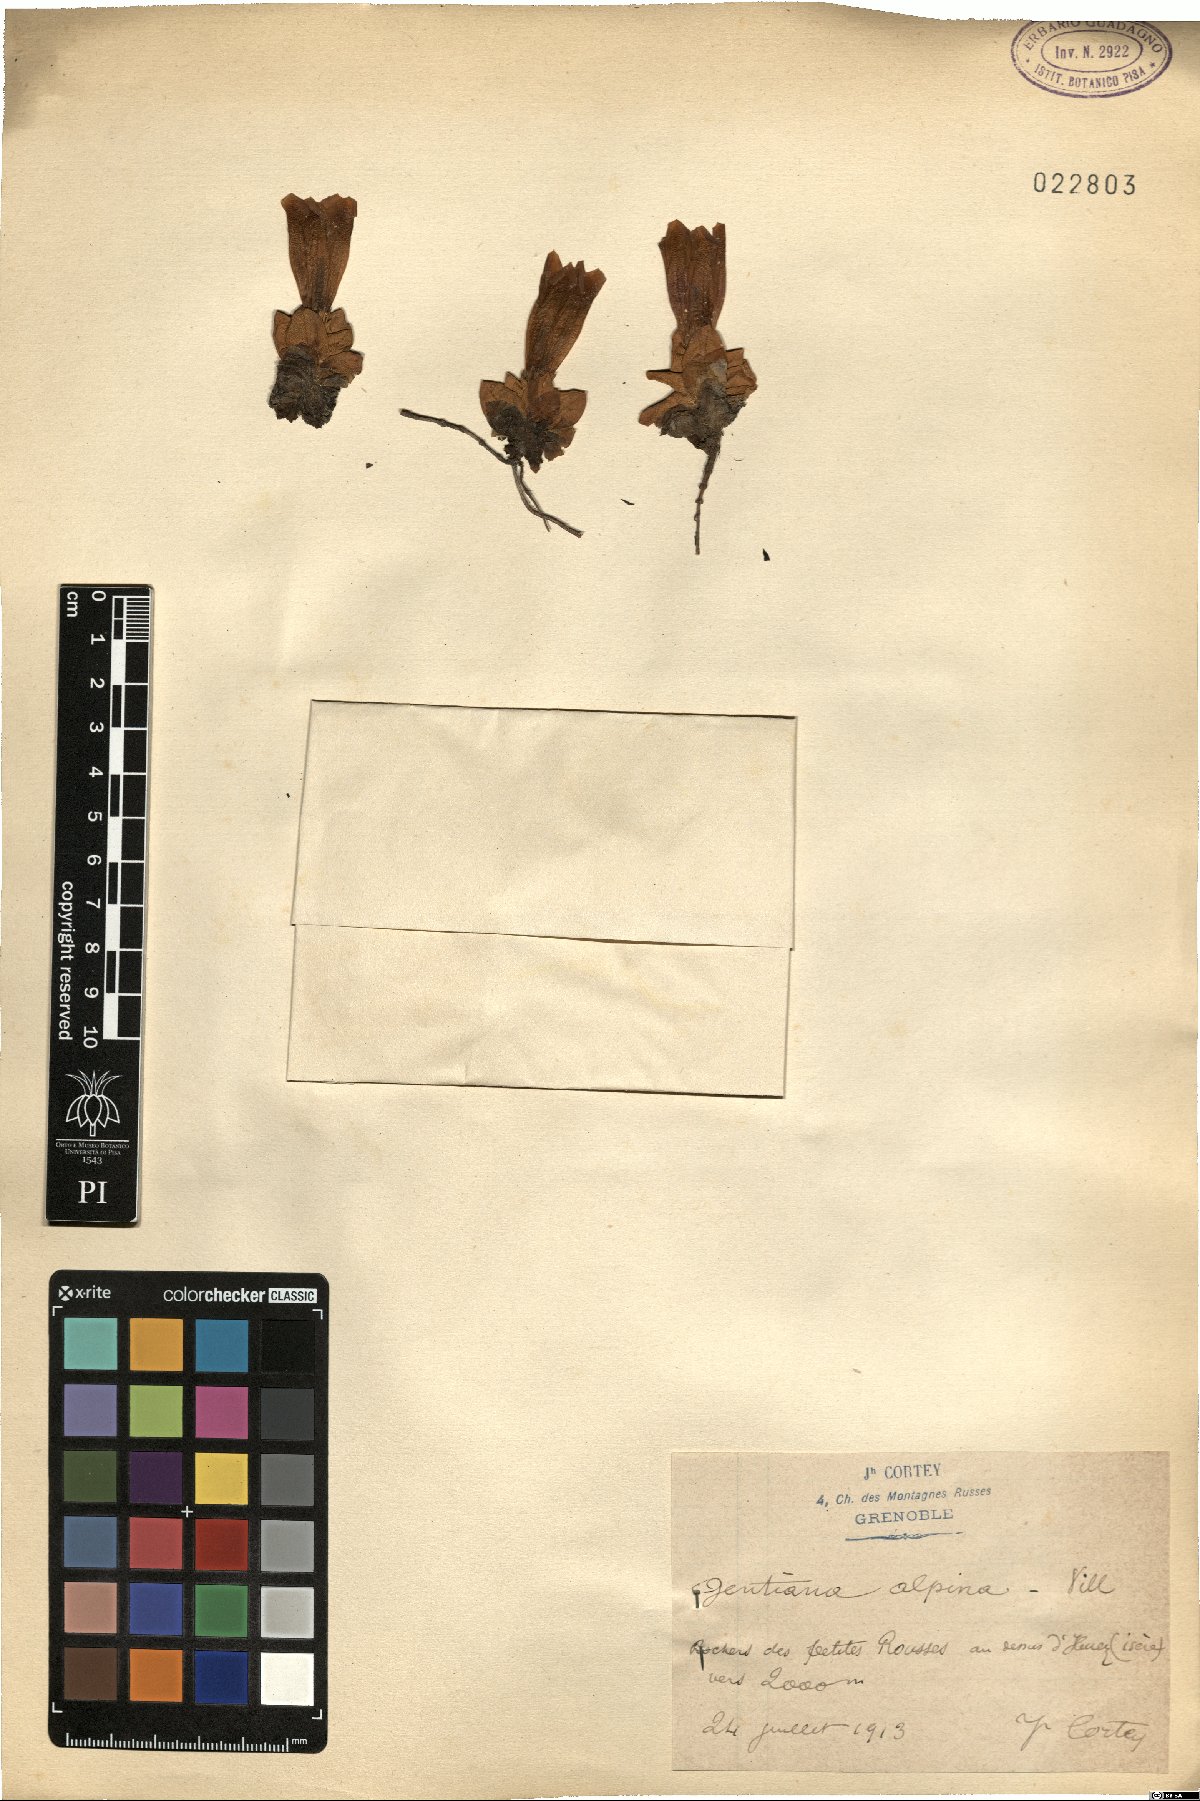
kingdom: Plantae
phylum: Tracheophyta
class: Magnoliopsida
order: Gentianales
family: Gentianaceae
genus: Gentiana
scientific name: Gentiana alpina
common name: Southern gentian
